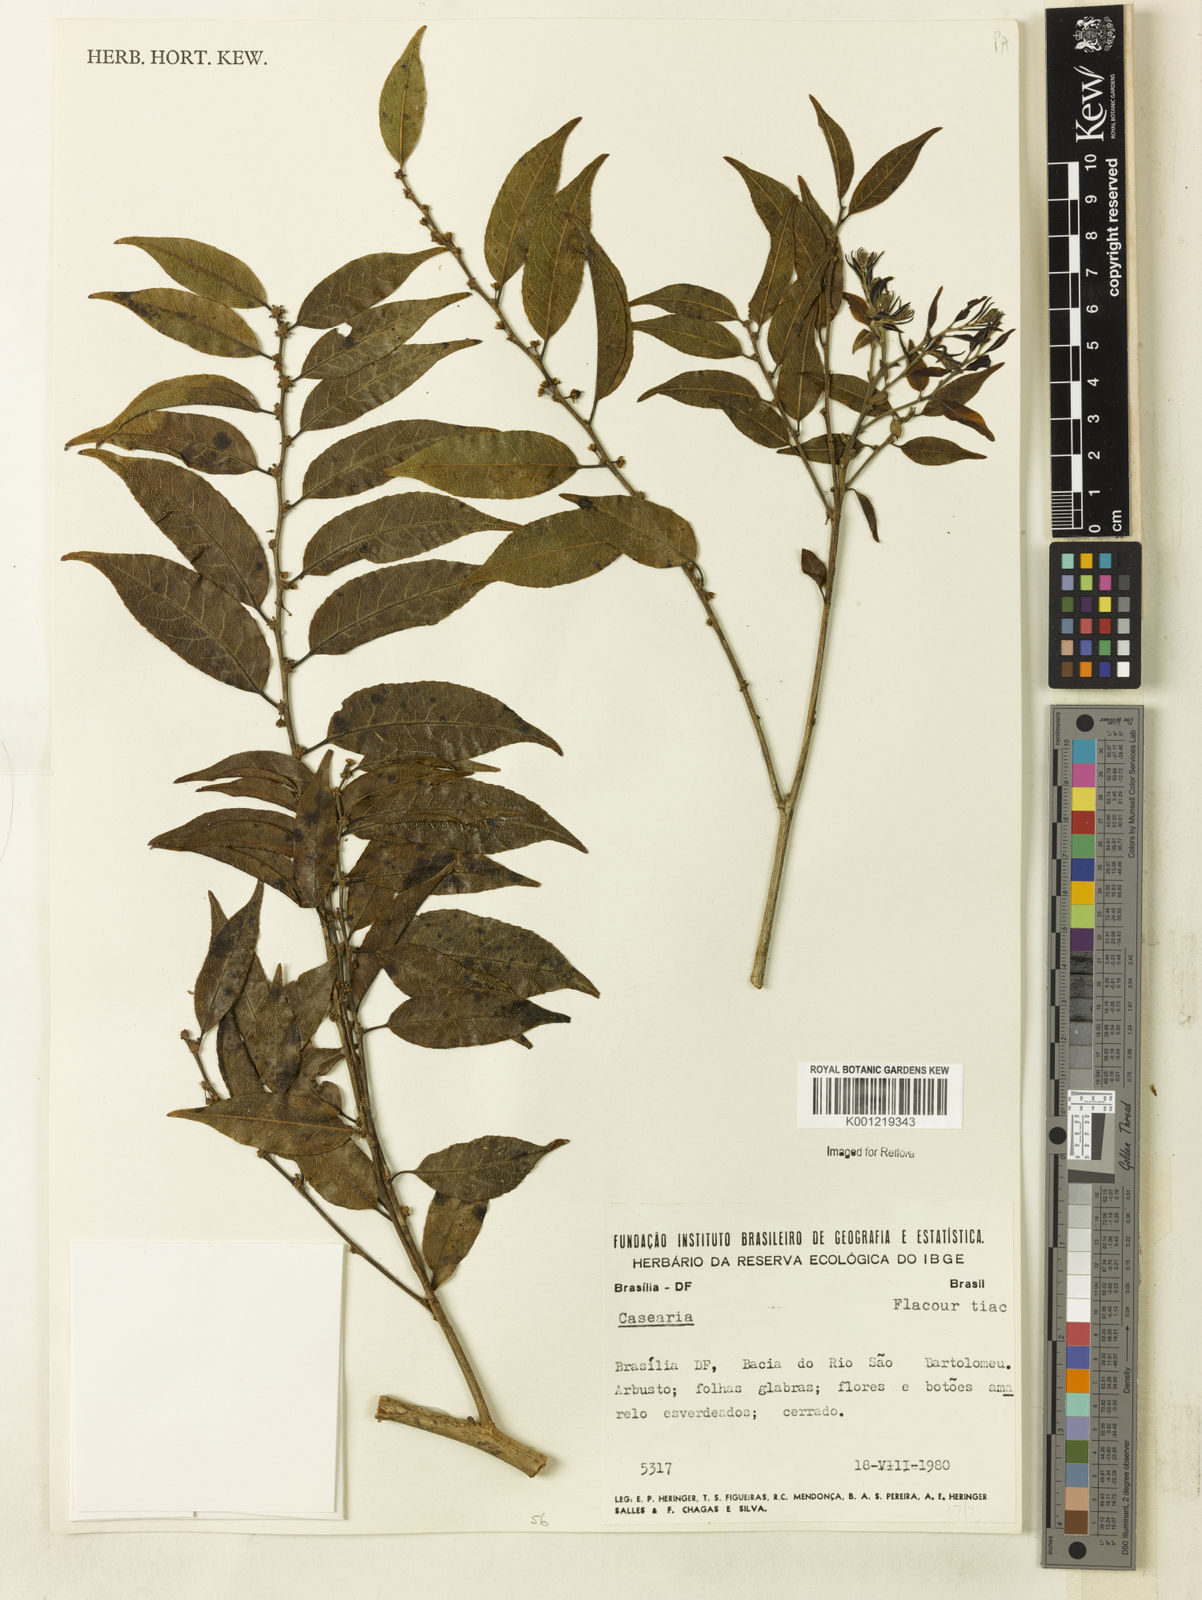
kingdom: Plantae
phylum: Tracheophyta
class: Magnoliopsida
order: Malpighiales
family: Salicaceae
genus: Casearia
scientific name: Casearia
